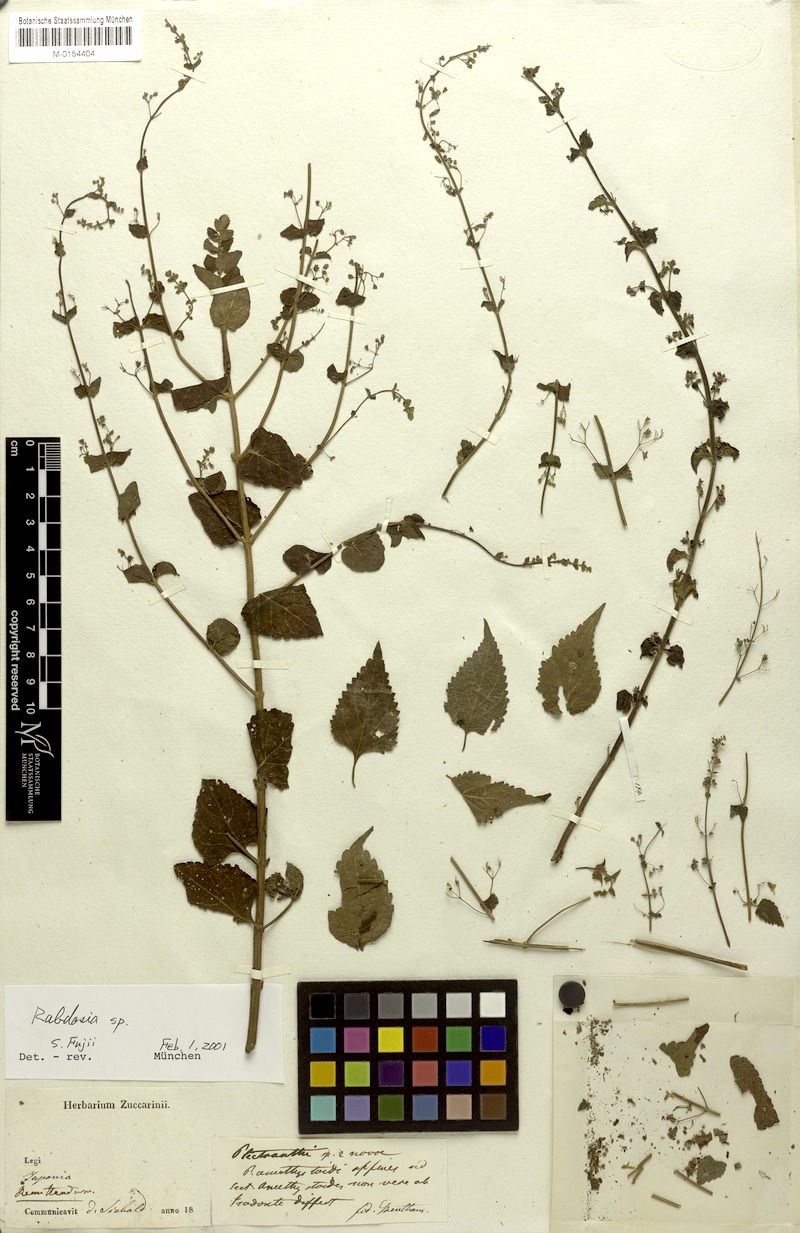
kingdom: Plantae
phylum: Tracheophyta
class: Magnoliopsida
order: Lamiales
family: Lamiaceae
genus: Isodon
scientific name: Isodon japonicus
